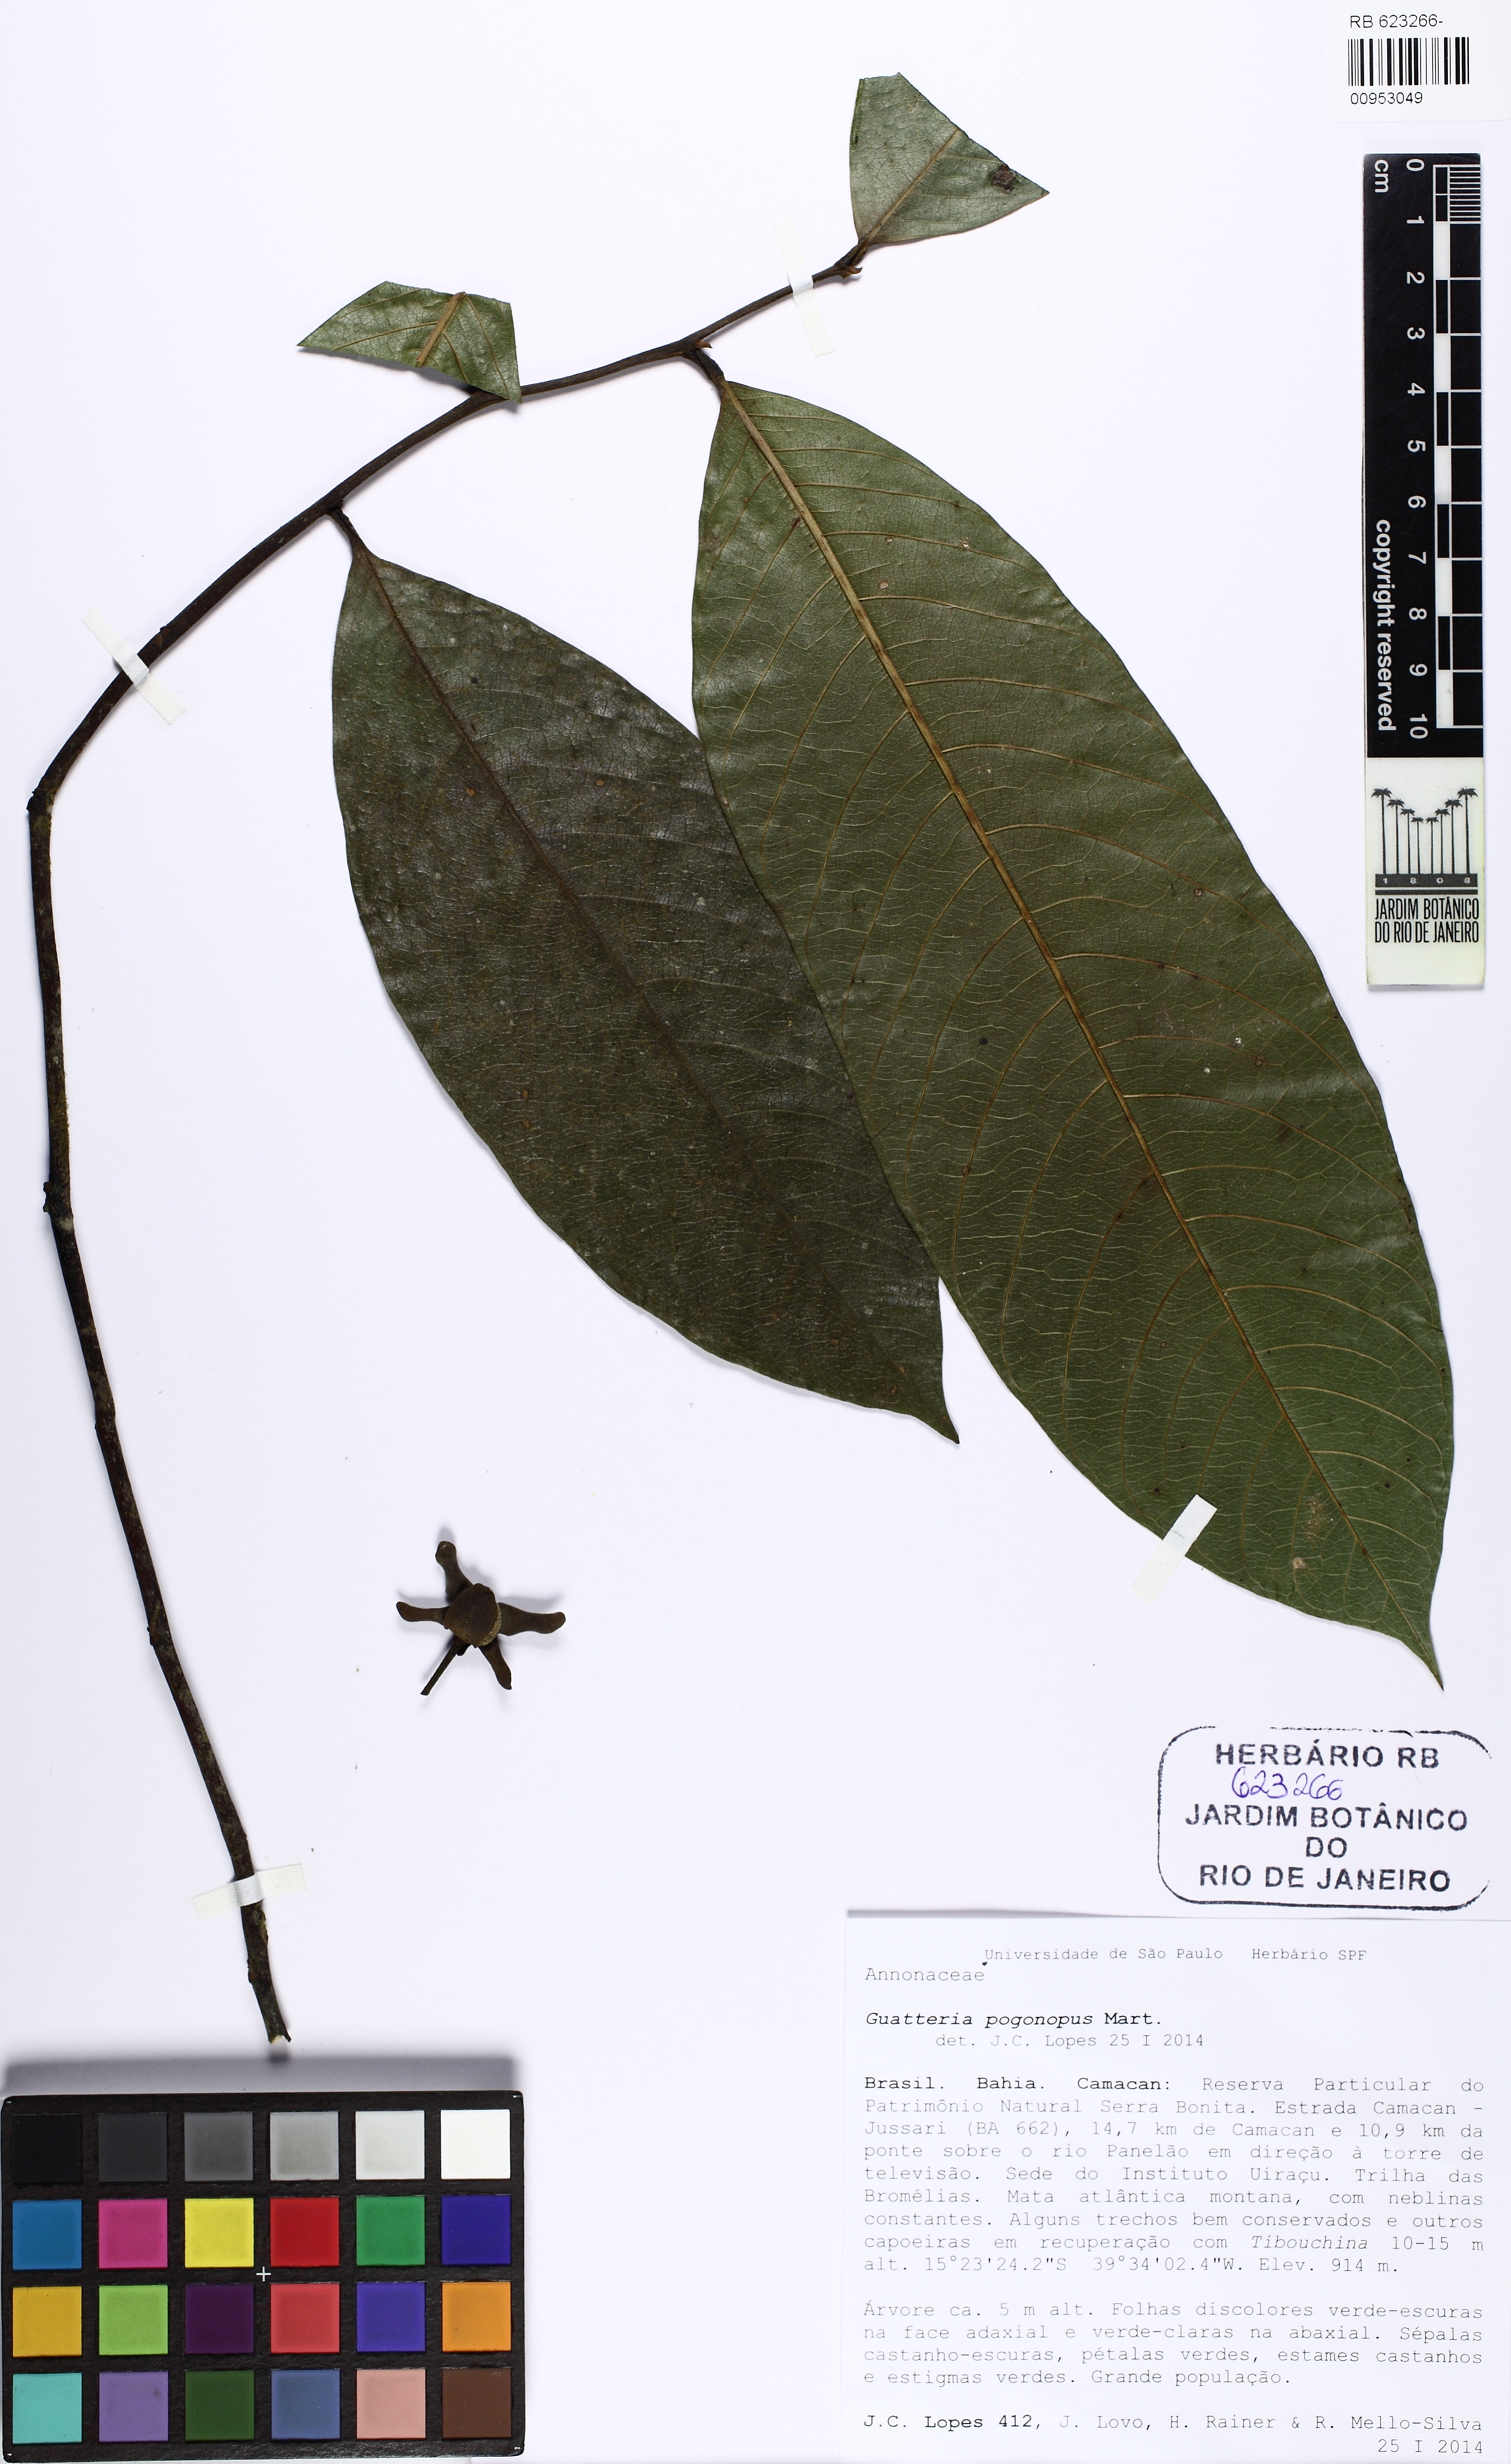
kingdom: Plantae
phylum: Tracheophyta
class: Magnoliopsida
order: Magnoliales
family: Annonaceae
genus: Guatteria
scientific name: Guatteria pogonopus
